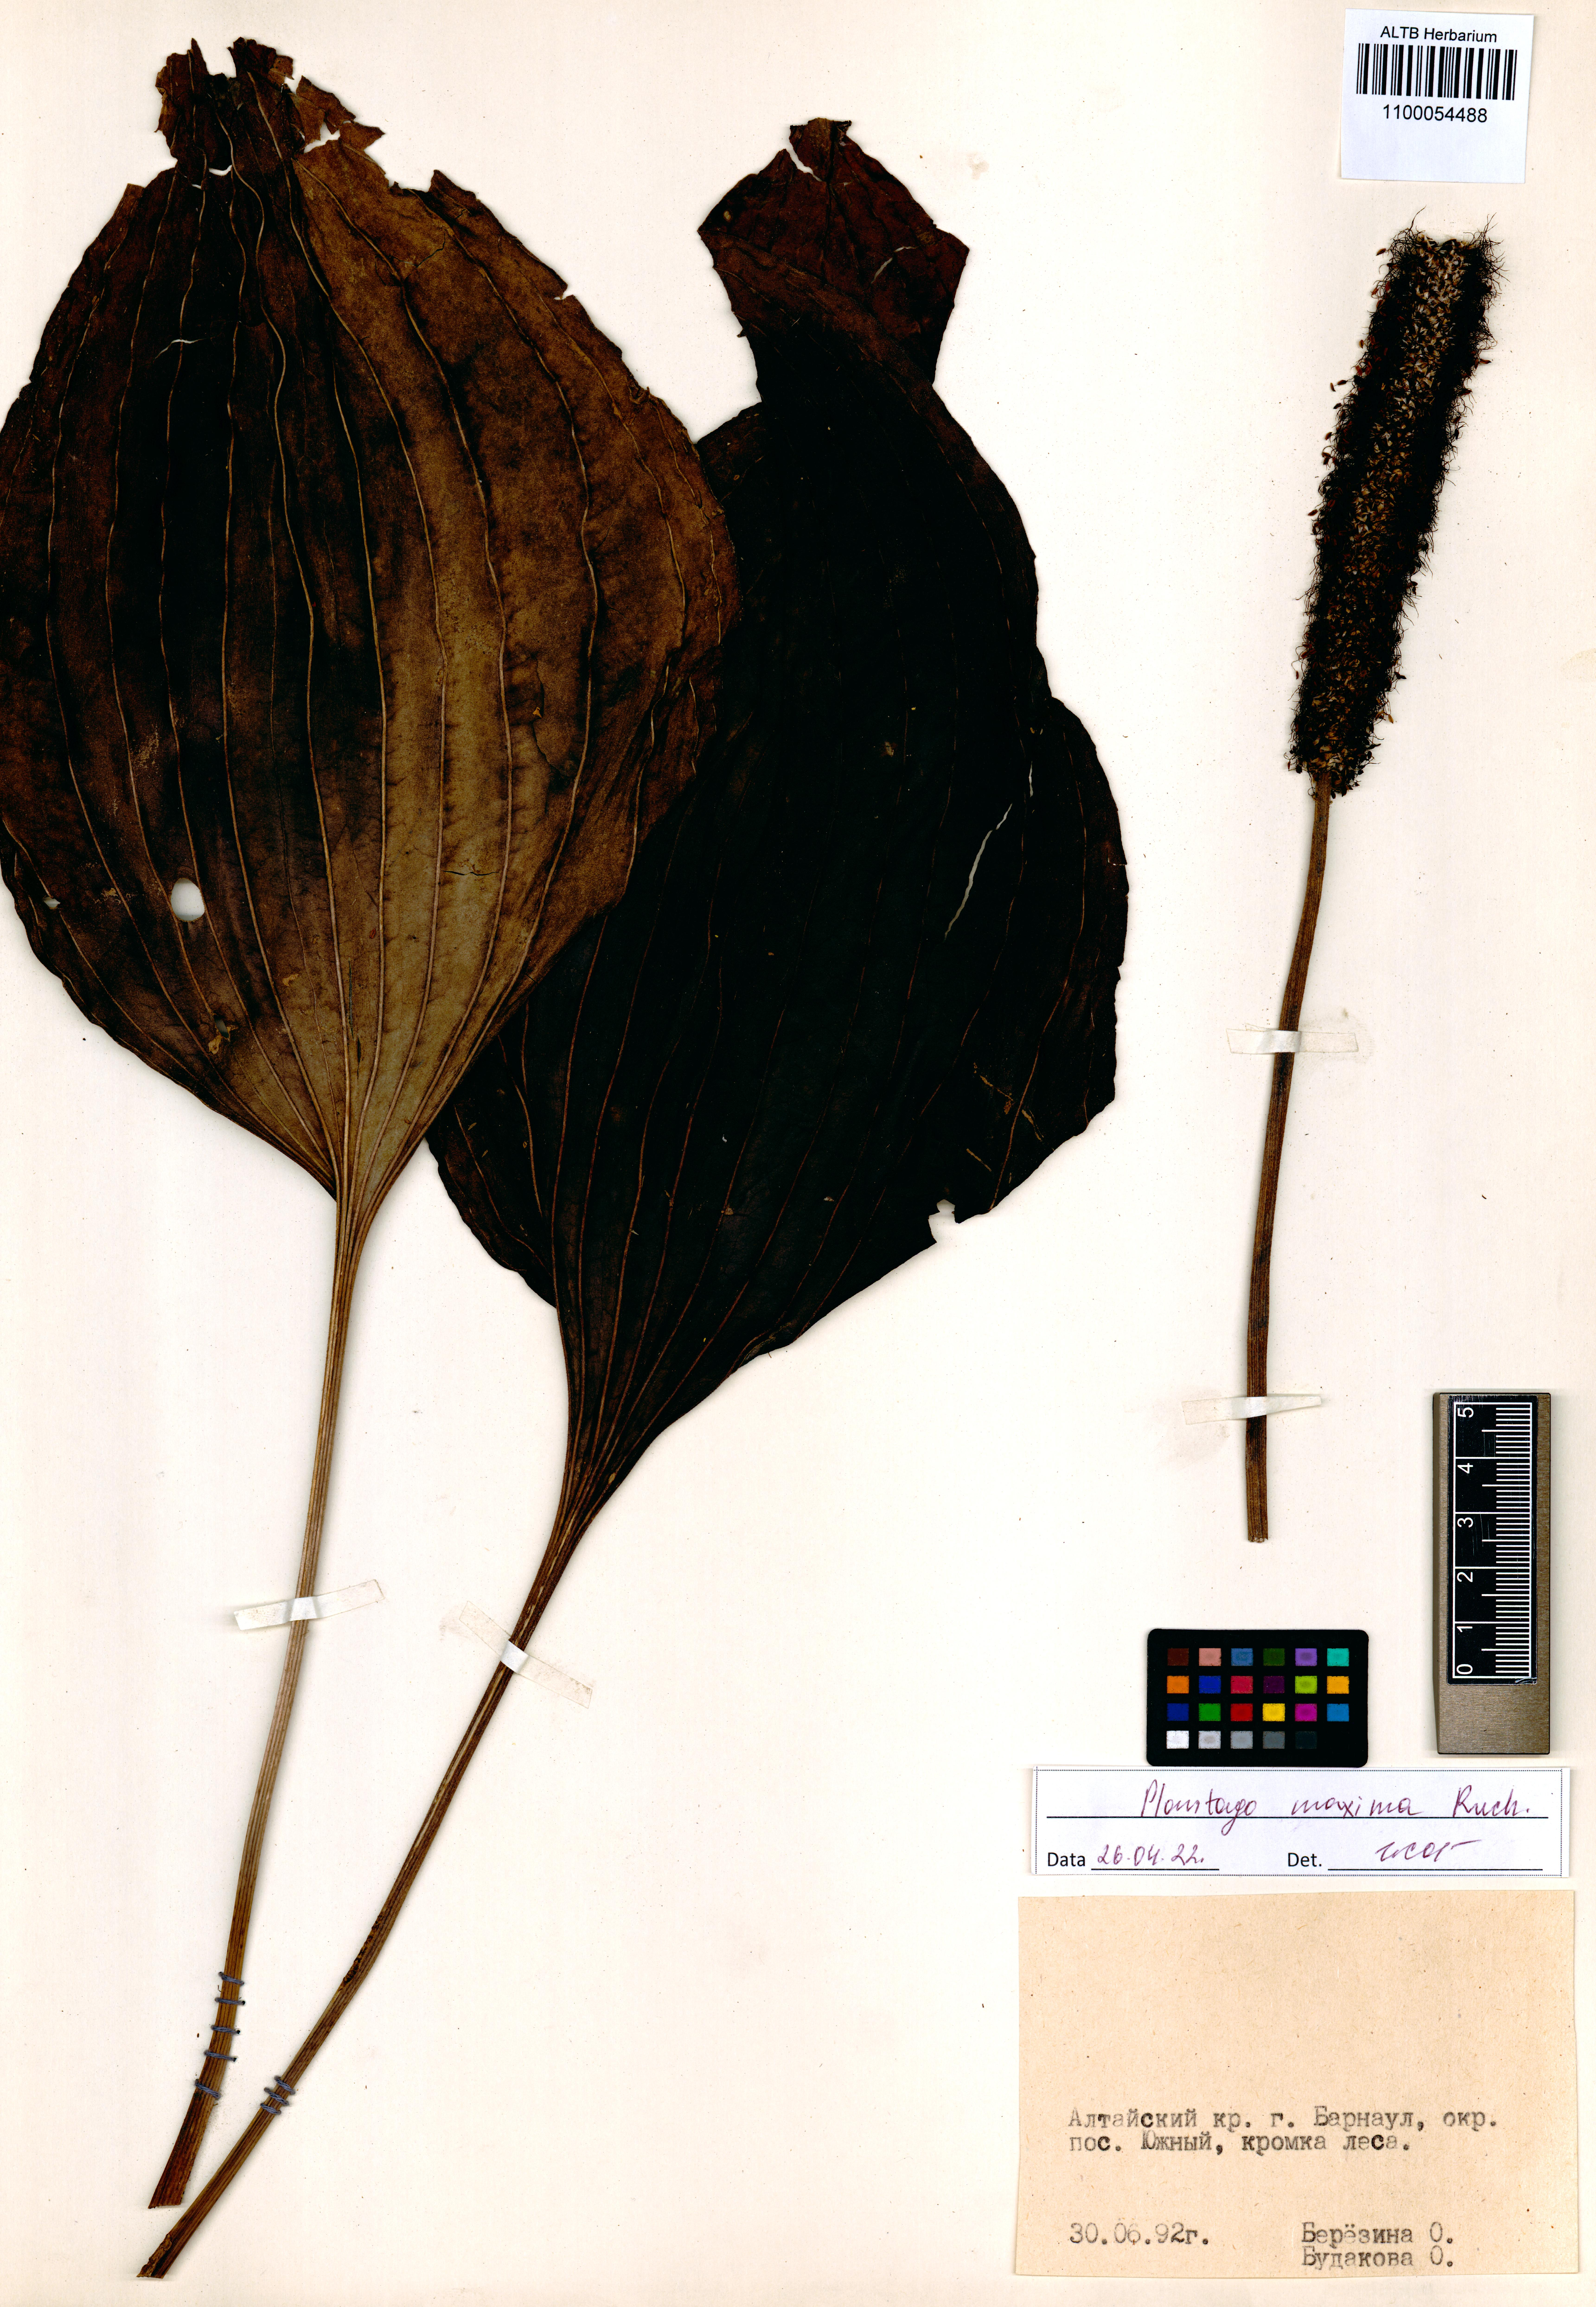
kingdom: Plantae
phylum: Tracheophyta
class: Magnoliopsida
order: Lamiales
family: Plantaginaceae
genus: Plantago
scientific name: Plantago maxima
